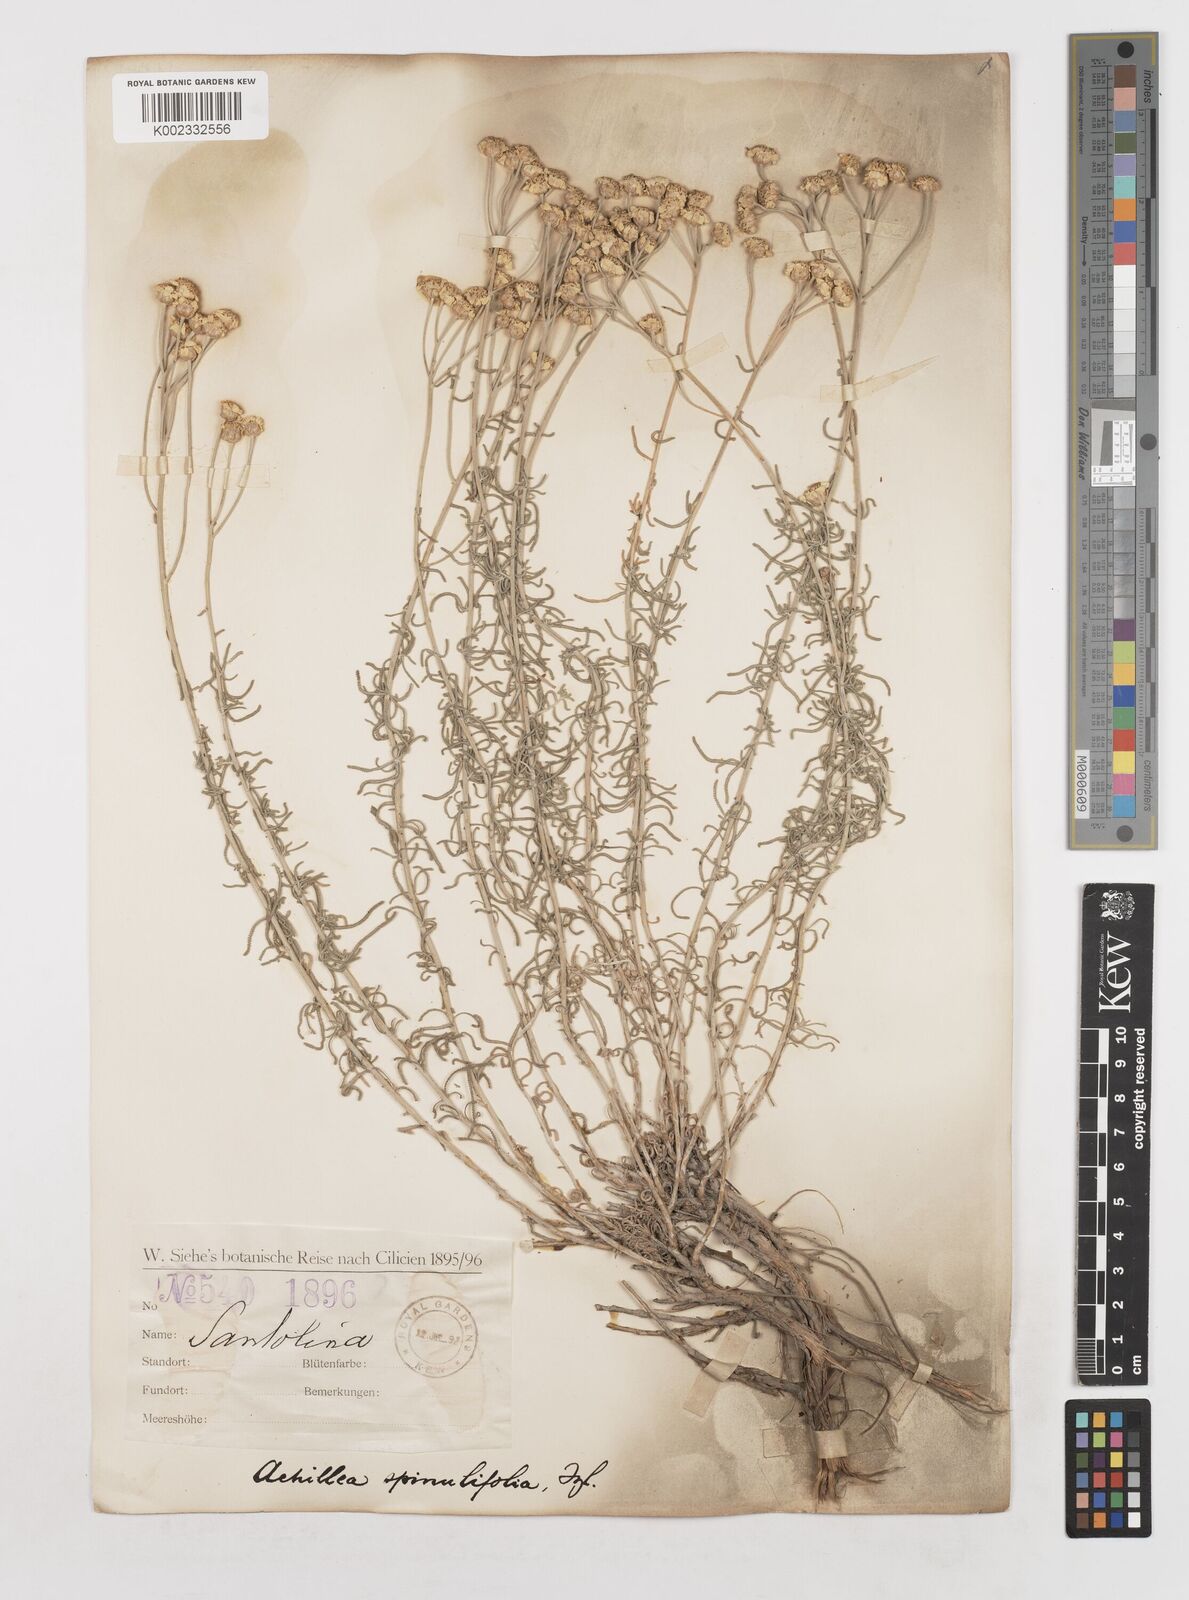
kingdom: Plantae
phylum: Tracheophyta
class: Magnoliopsida
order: Asterales
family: Asteraceae
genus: Achillea
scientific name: Achillea spinulifolia
